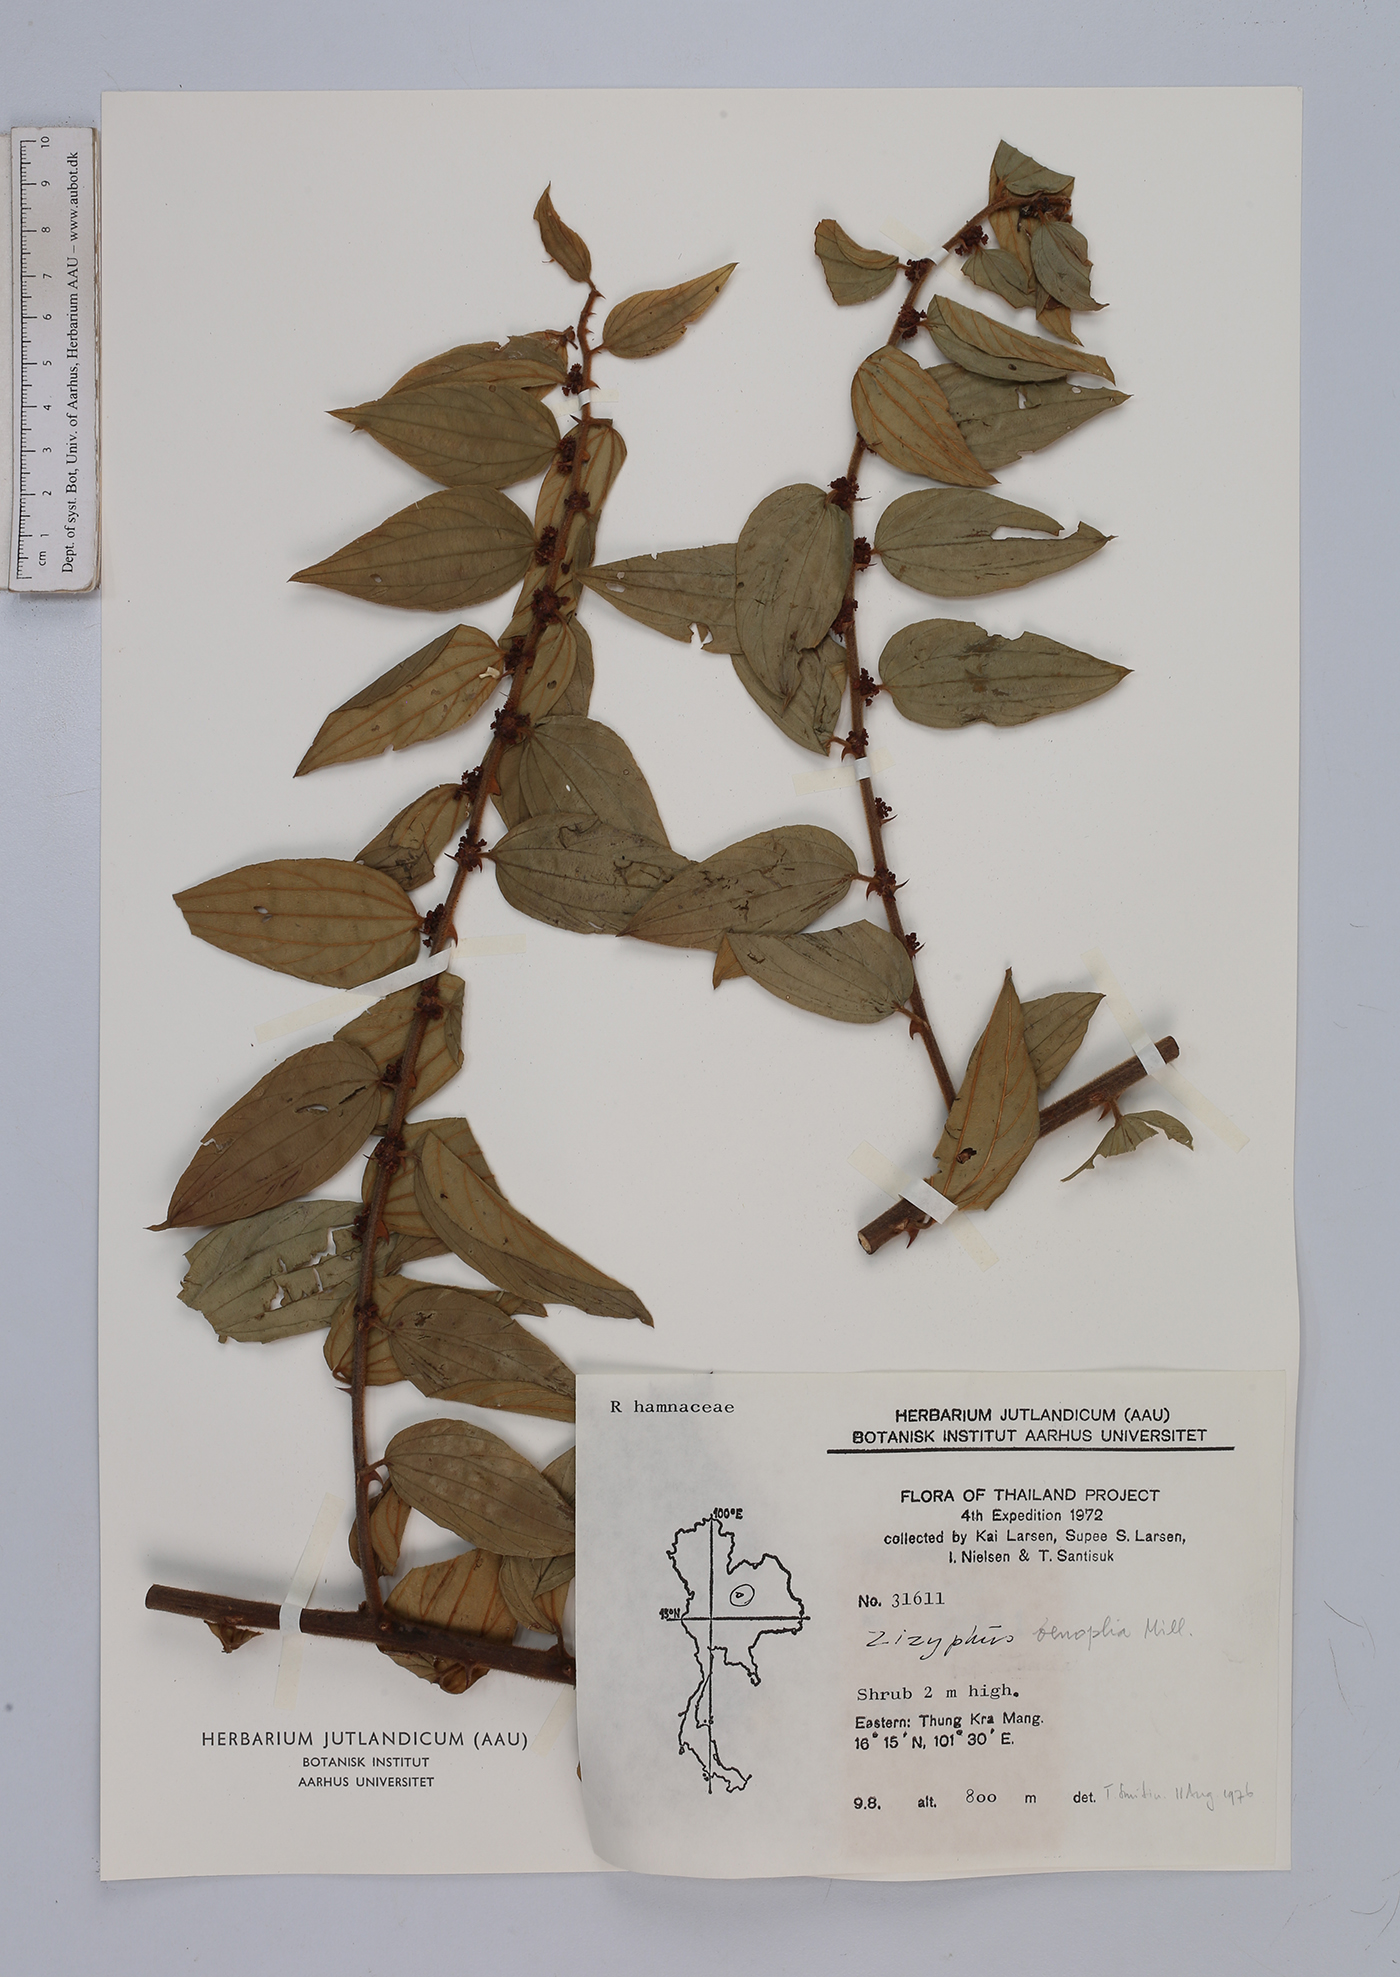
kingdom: Plantae
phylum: Tracheophyta
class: Magnoliopsida
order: Rosales
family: Rhamnaceae
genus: Ziziphus
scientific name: Ziziphus oenopolia
